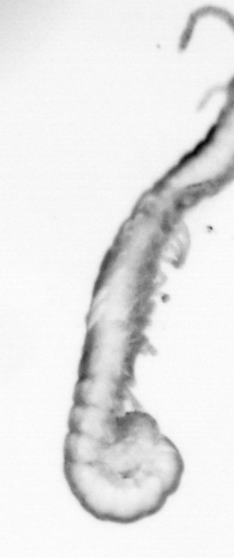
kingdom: Animalia
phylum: Annelida
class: Polychaeta
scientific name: Polychaeta
